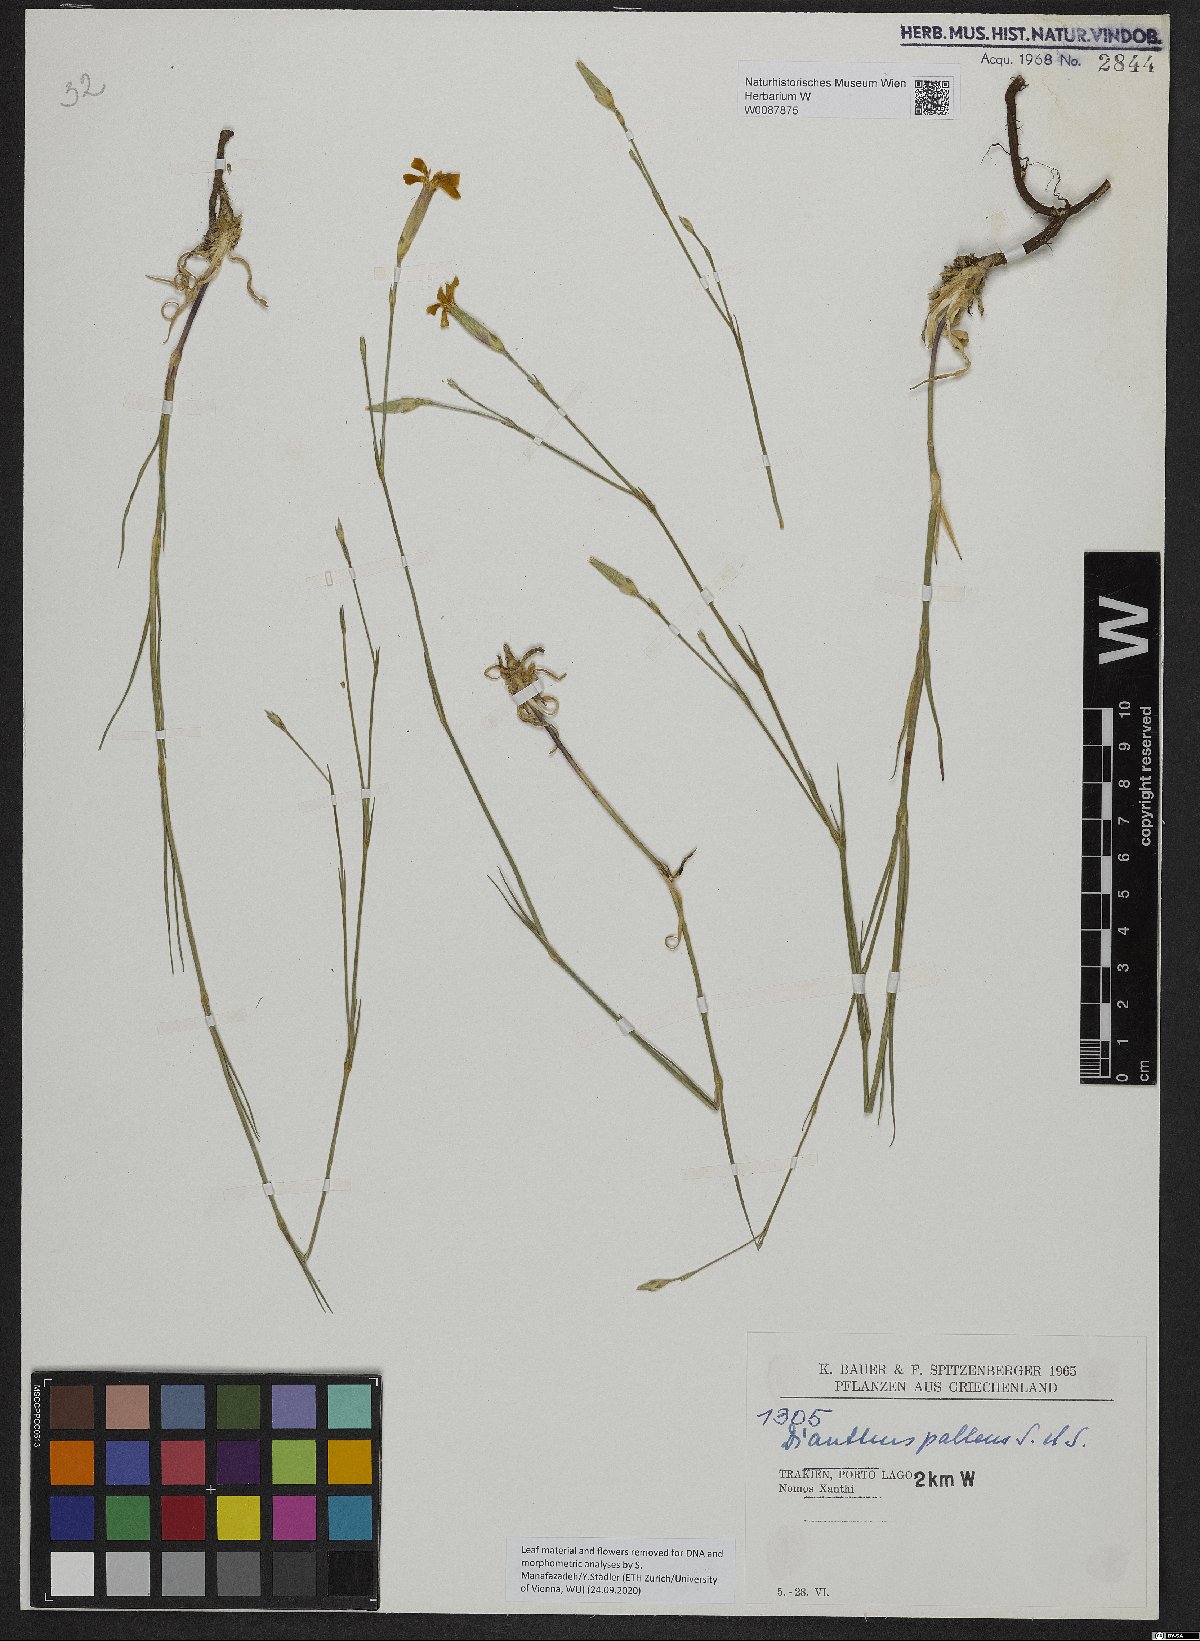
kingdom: Plantae
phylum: Tracheophyta
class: Magnoliopsida
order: Caryophyllales
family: Caryophyllaceae
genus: Dianthus
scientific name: Dianthus monadelphus
